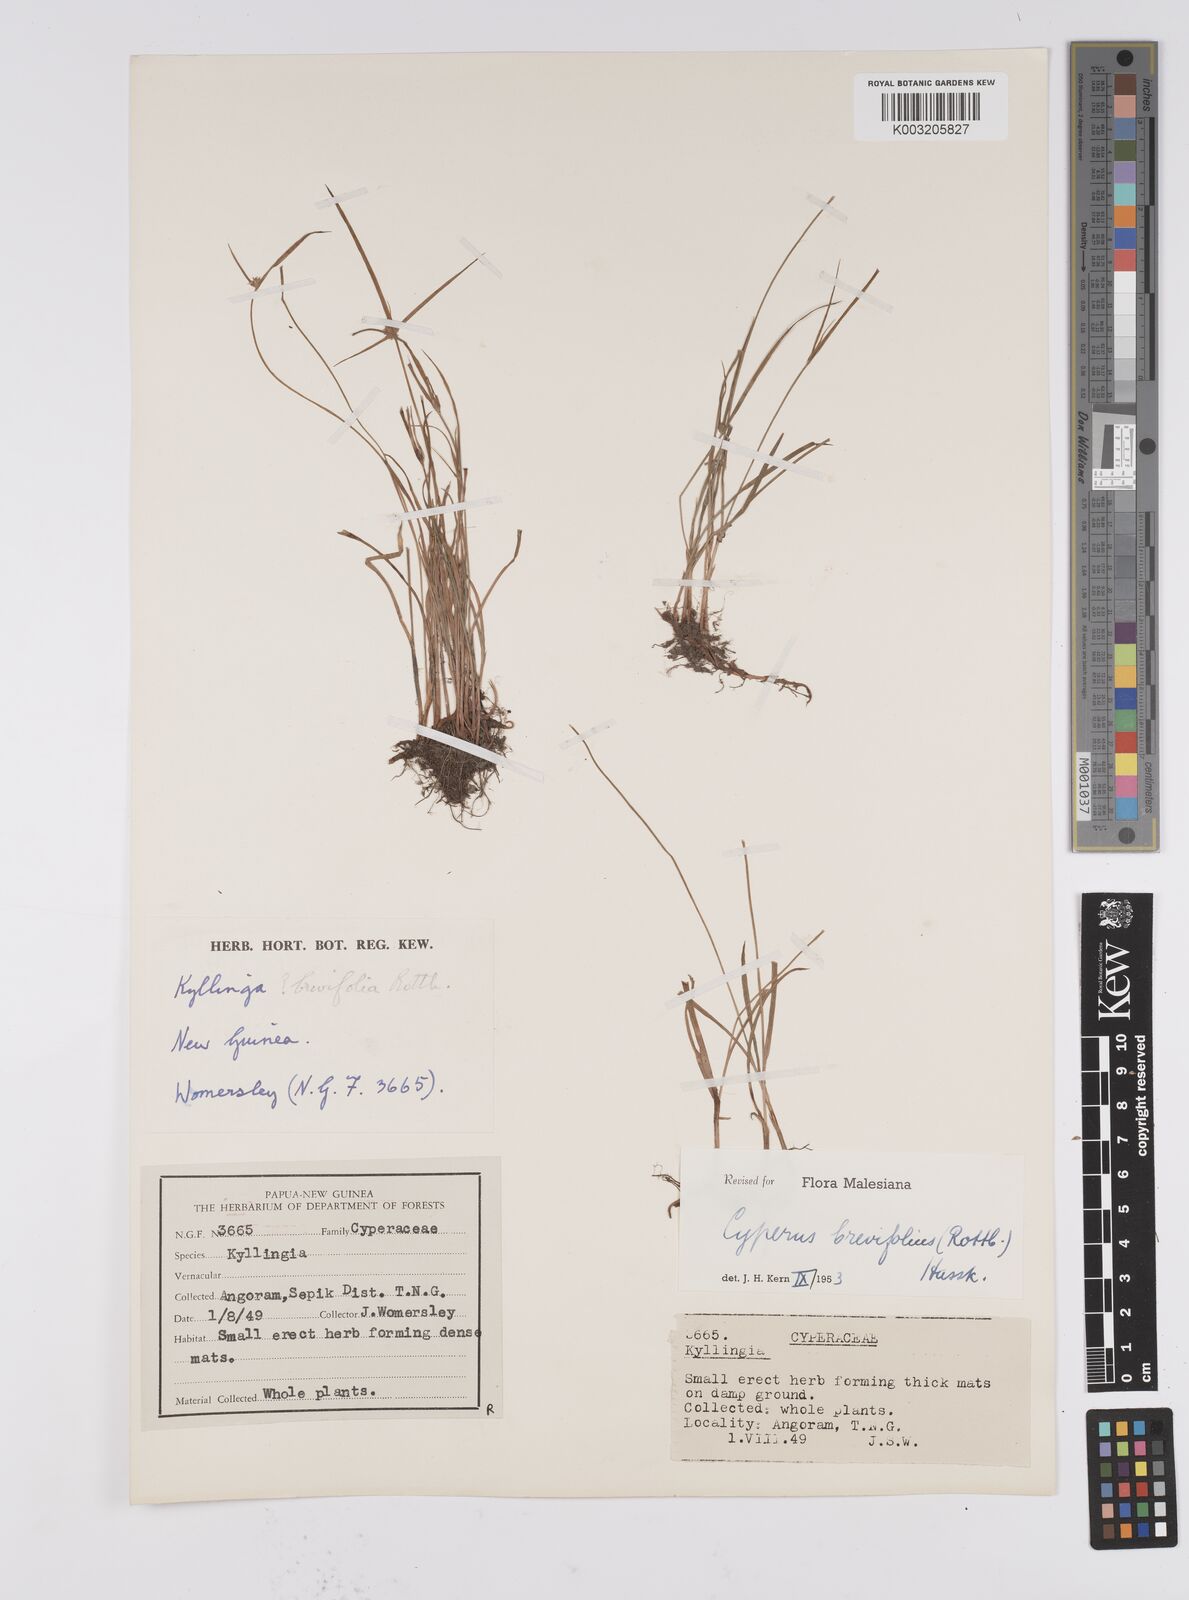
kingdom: Plantae
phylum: Tracheophyta
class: Liliopsida
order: Poales
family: Cyperaceae
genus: Cyperus
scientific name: Cyperus brevifolius
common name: Globe kyllinga
